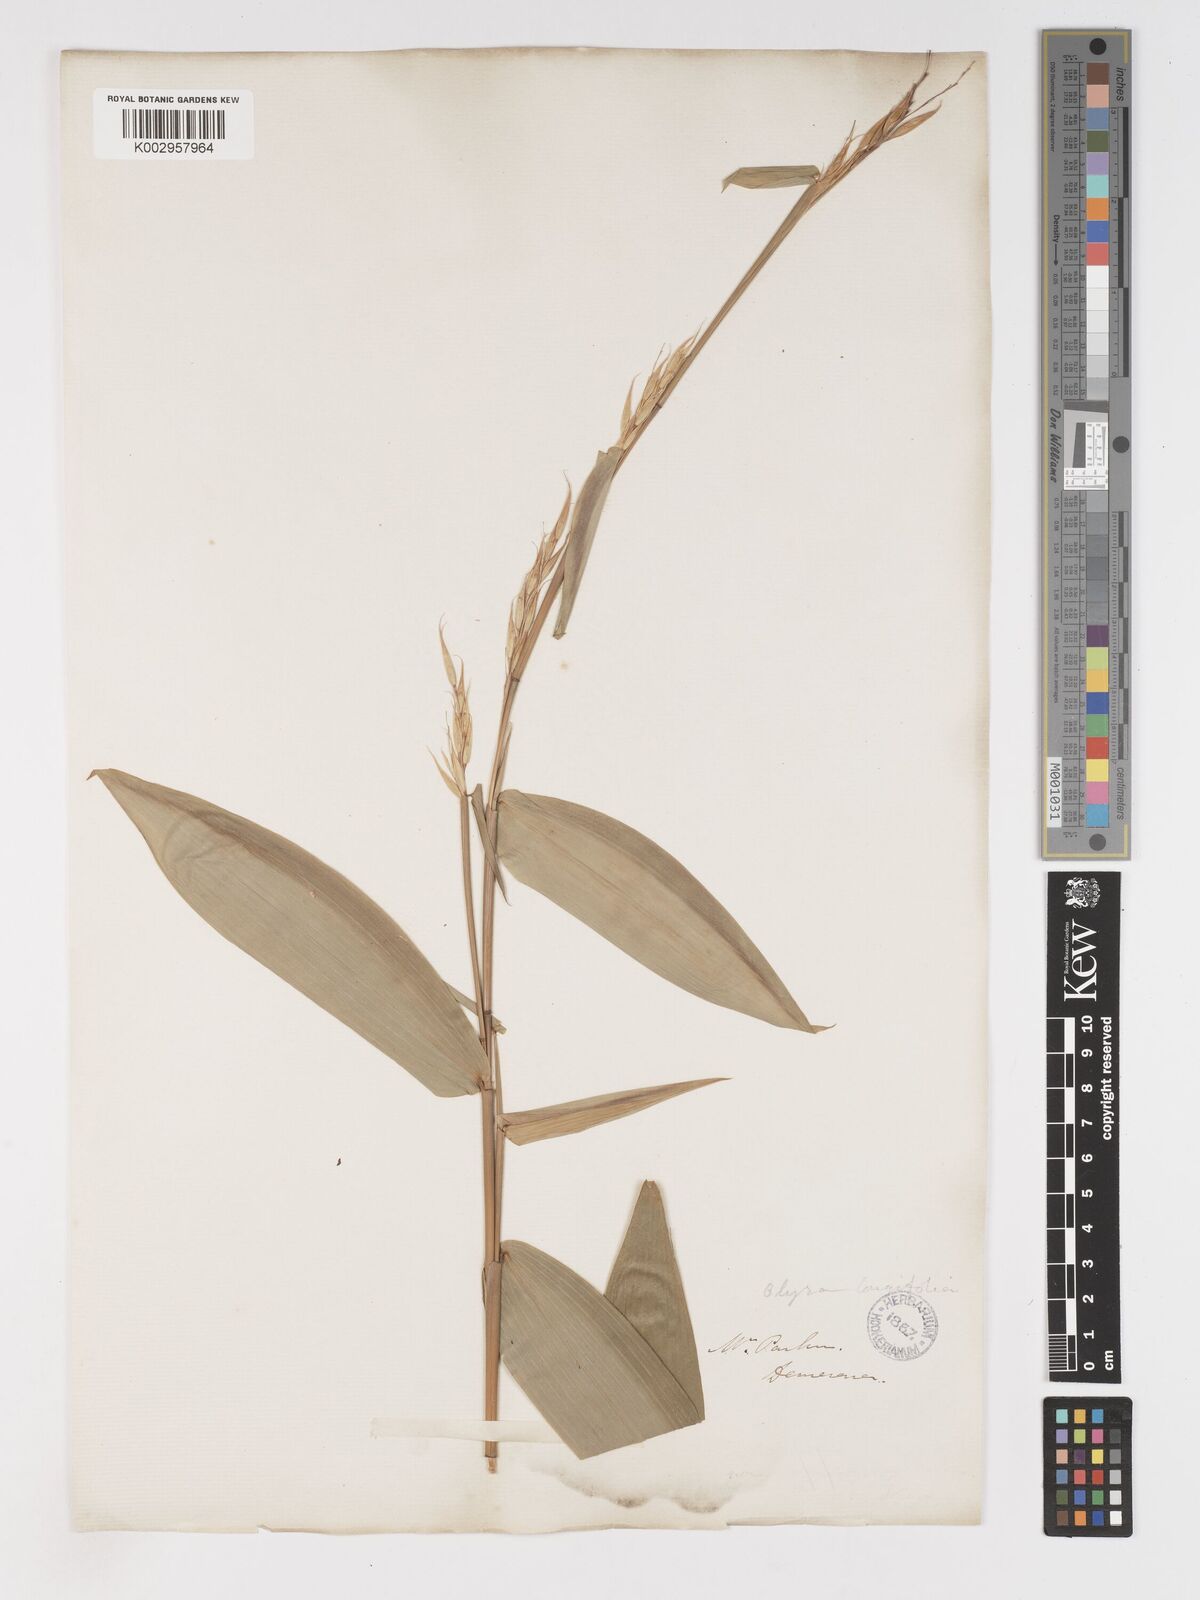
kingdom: Plantae
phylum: Tracheophyta
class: Liliopsida
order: Poales
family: Poaceae
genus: Olyra
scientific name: Olyra longifolia
